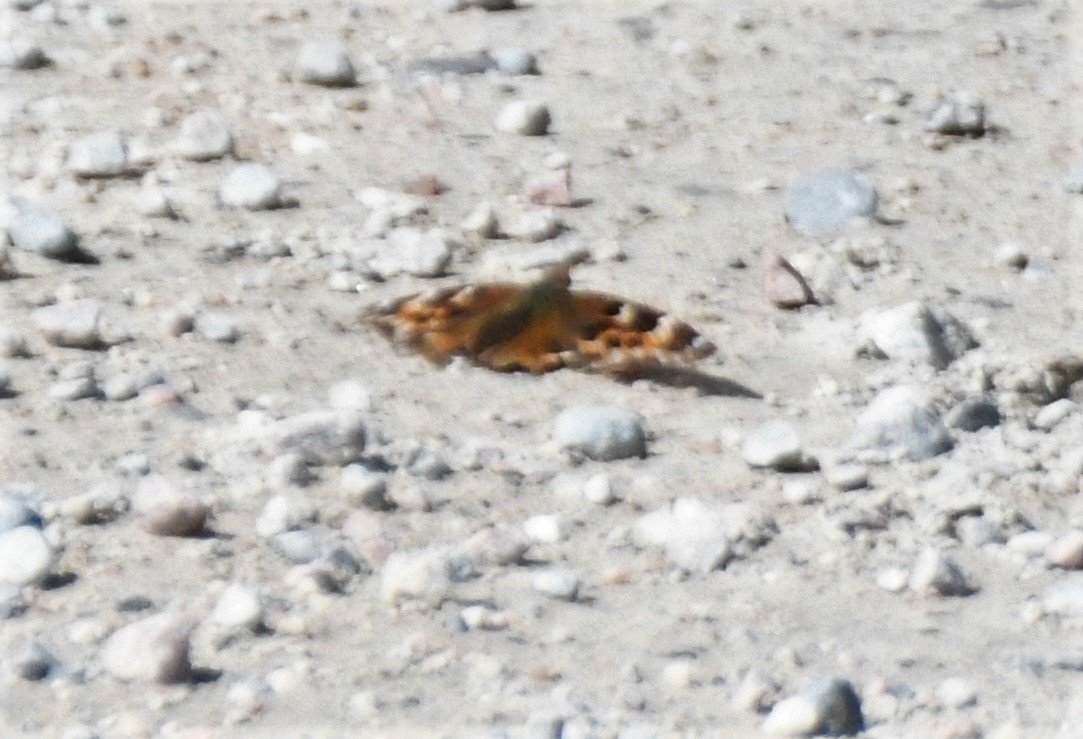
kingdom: Animalia
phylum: Arthropoda
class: Insecta
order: Lepidoptera
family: Nymphalidae
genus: Polygonia
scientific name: Polygonia vaualbum
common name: Compton Tortoiseshell
